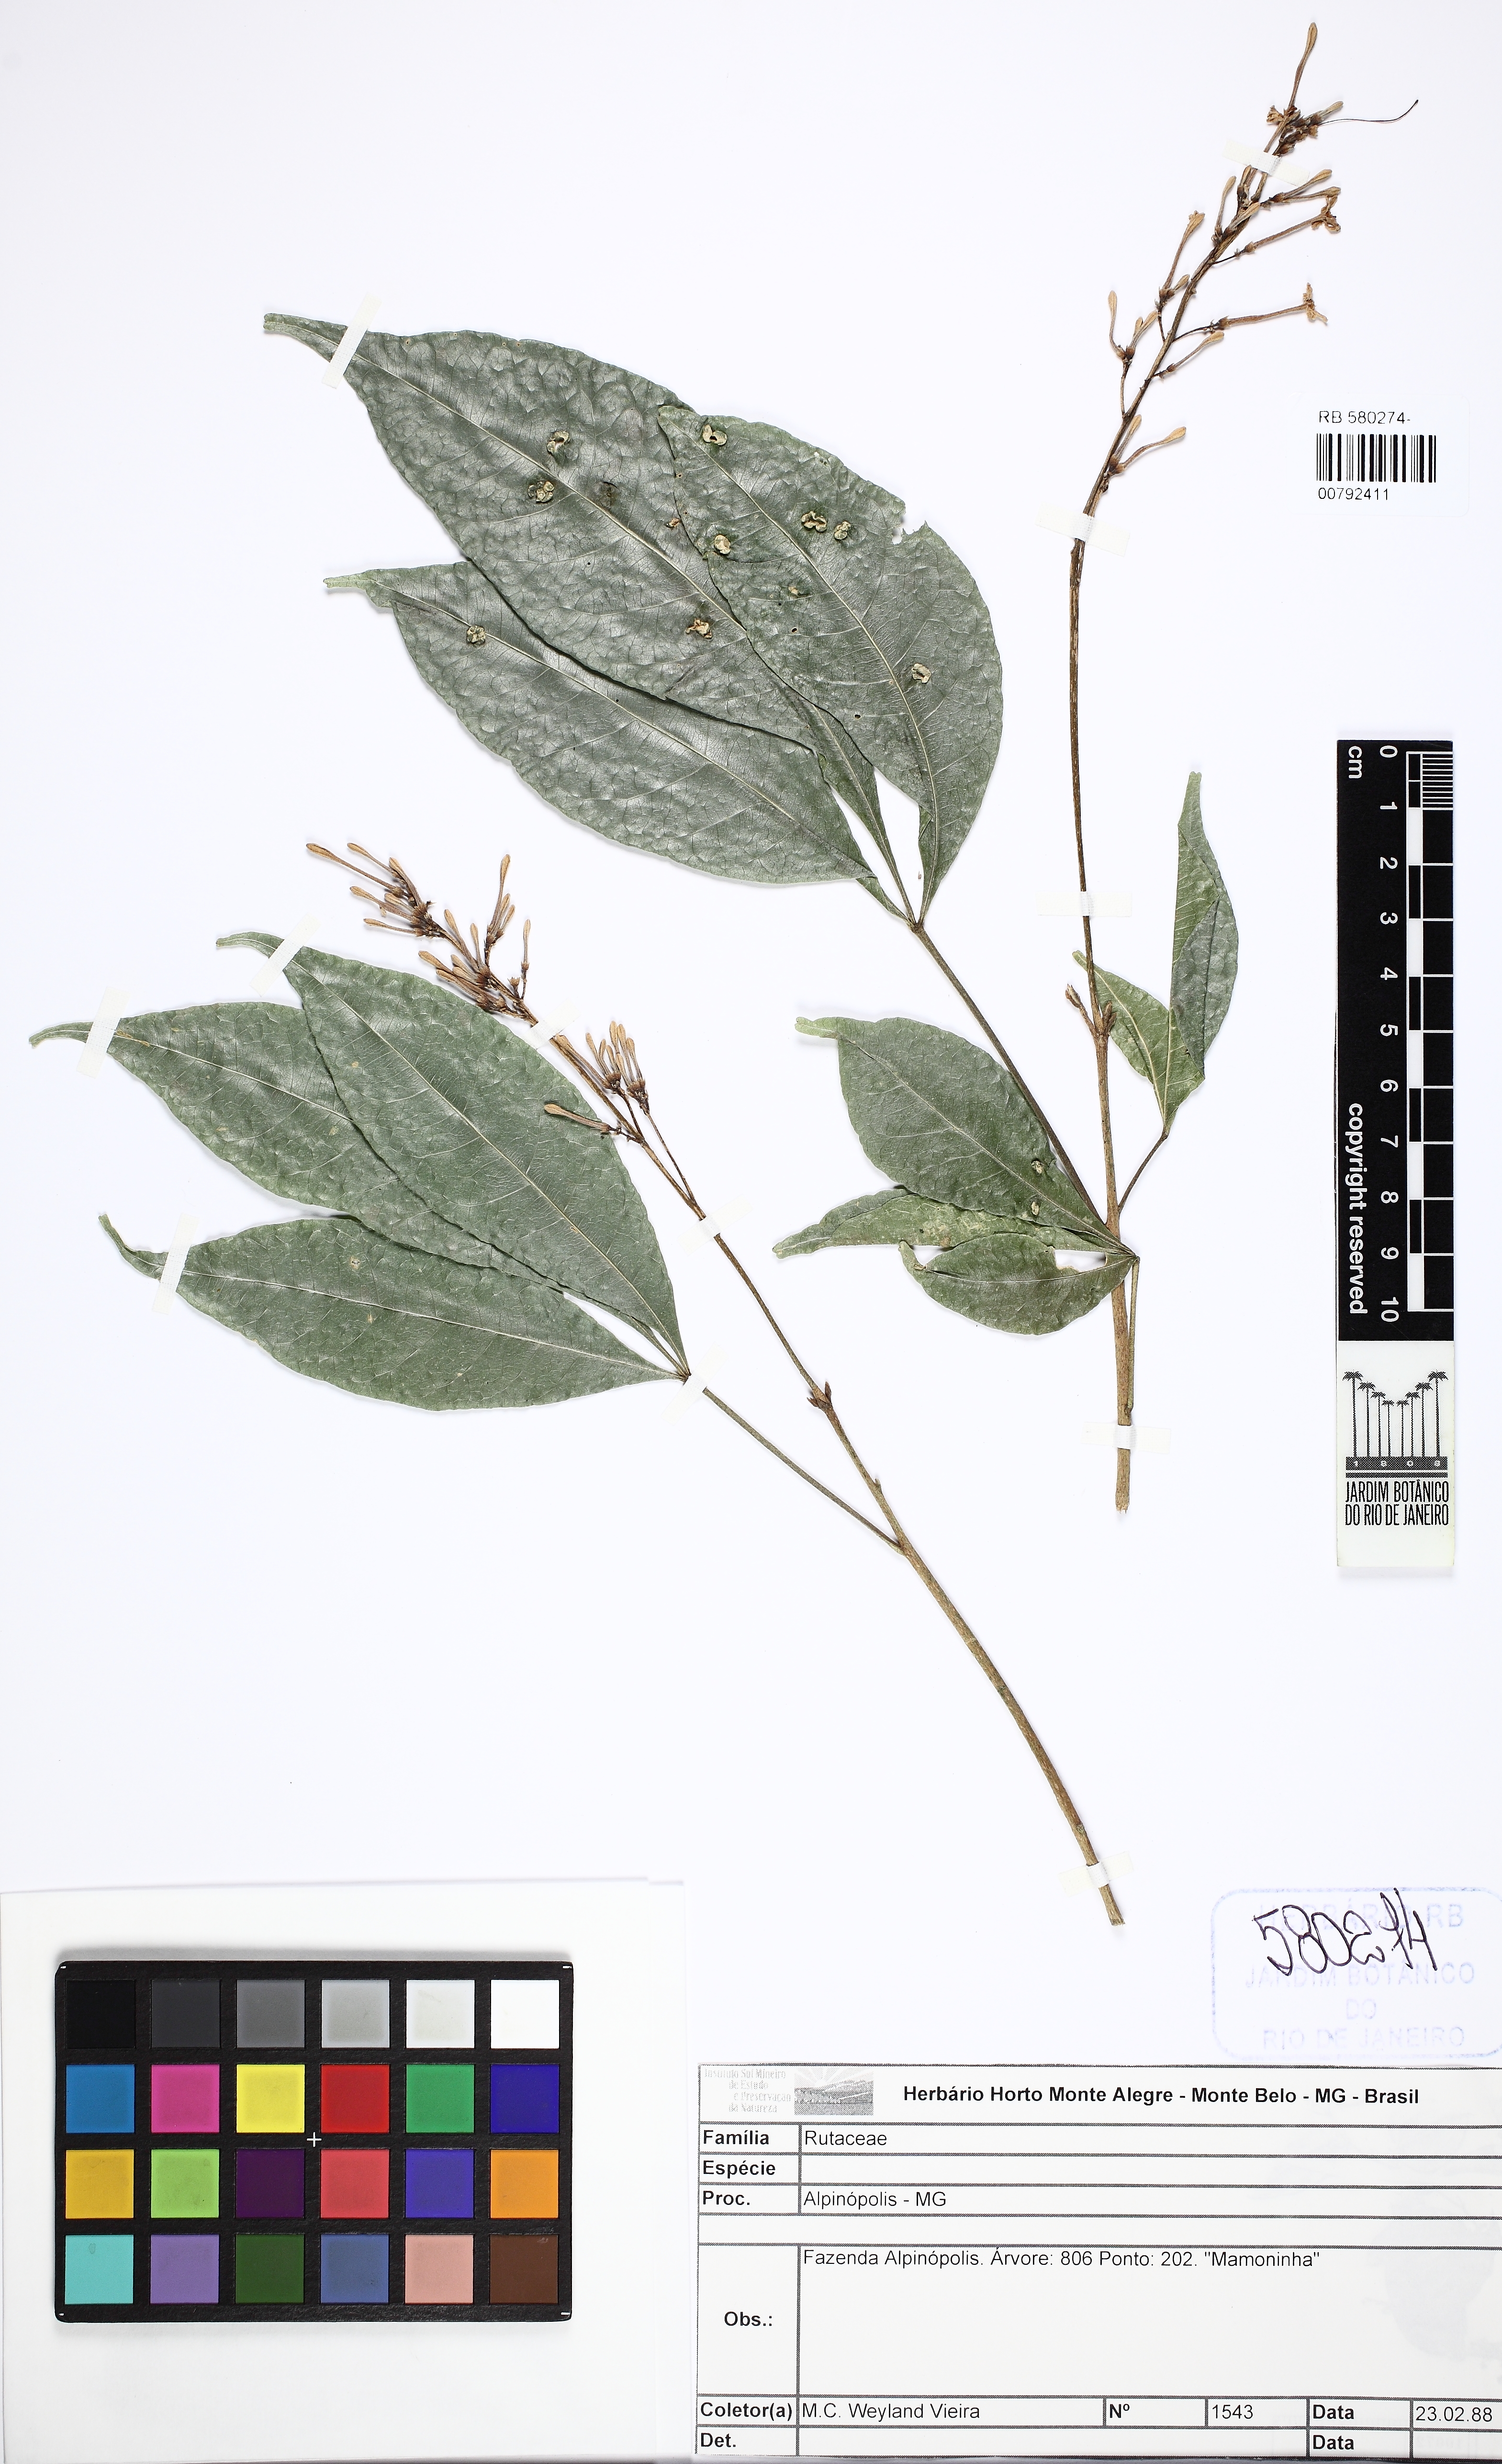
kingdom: Plantae
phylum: Tracheophyta
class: Magnoliopsida
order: Sapindales
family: Rutaceae
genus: Galipea
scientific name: Galipea jasminiflora
